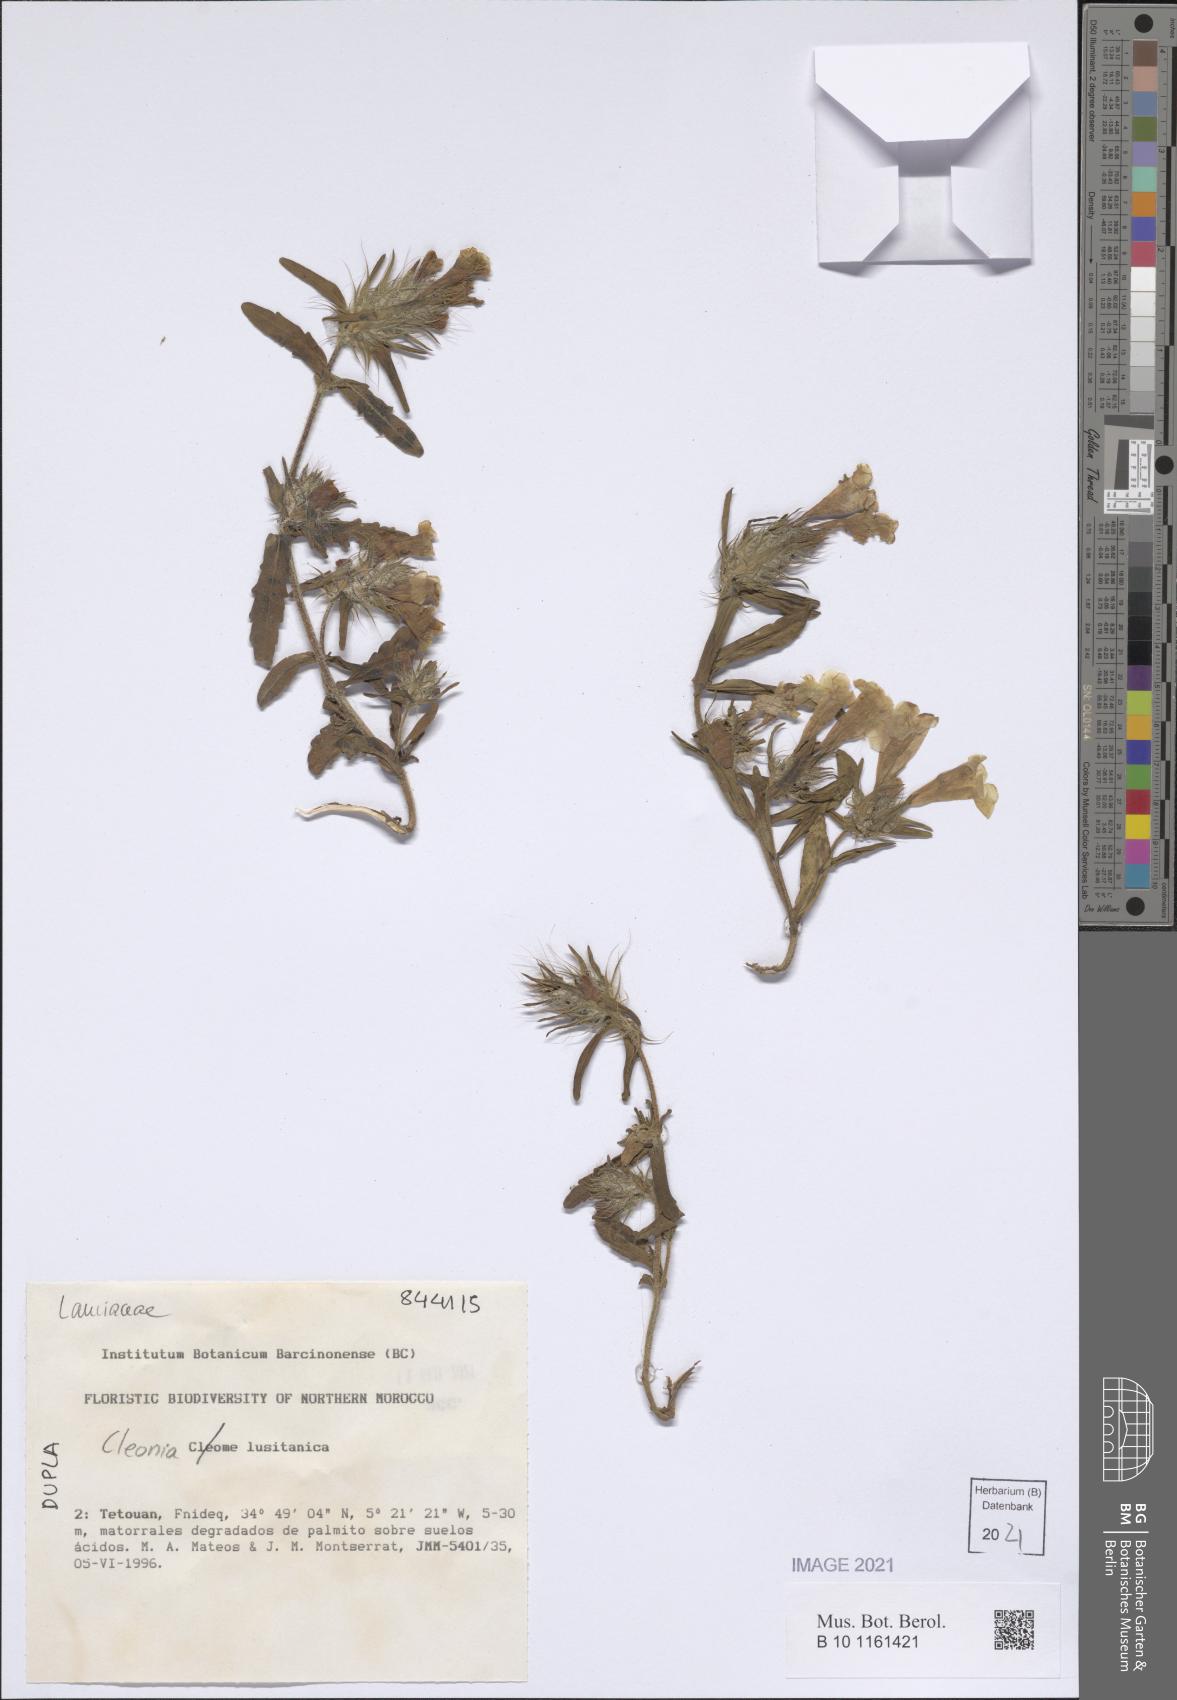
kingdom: Plantae
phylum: Tracheophyta
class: Magnoliopsida
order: Lamiales
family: Lamiaceae
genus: Cleonia
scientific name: Cleonia lusitanica
